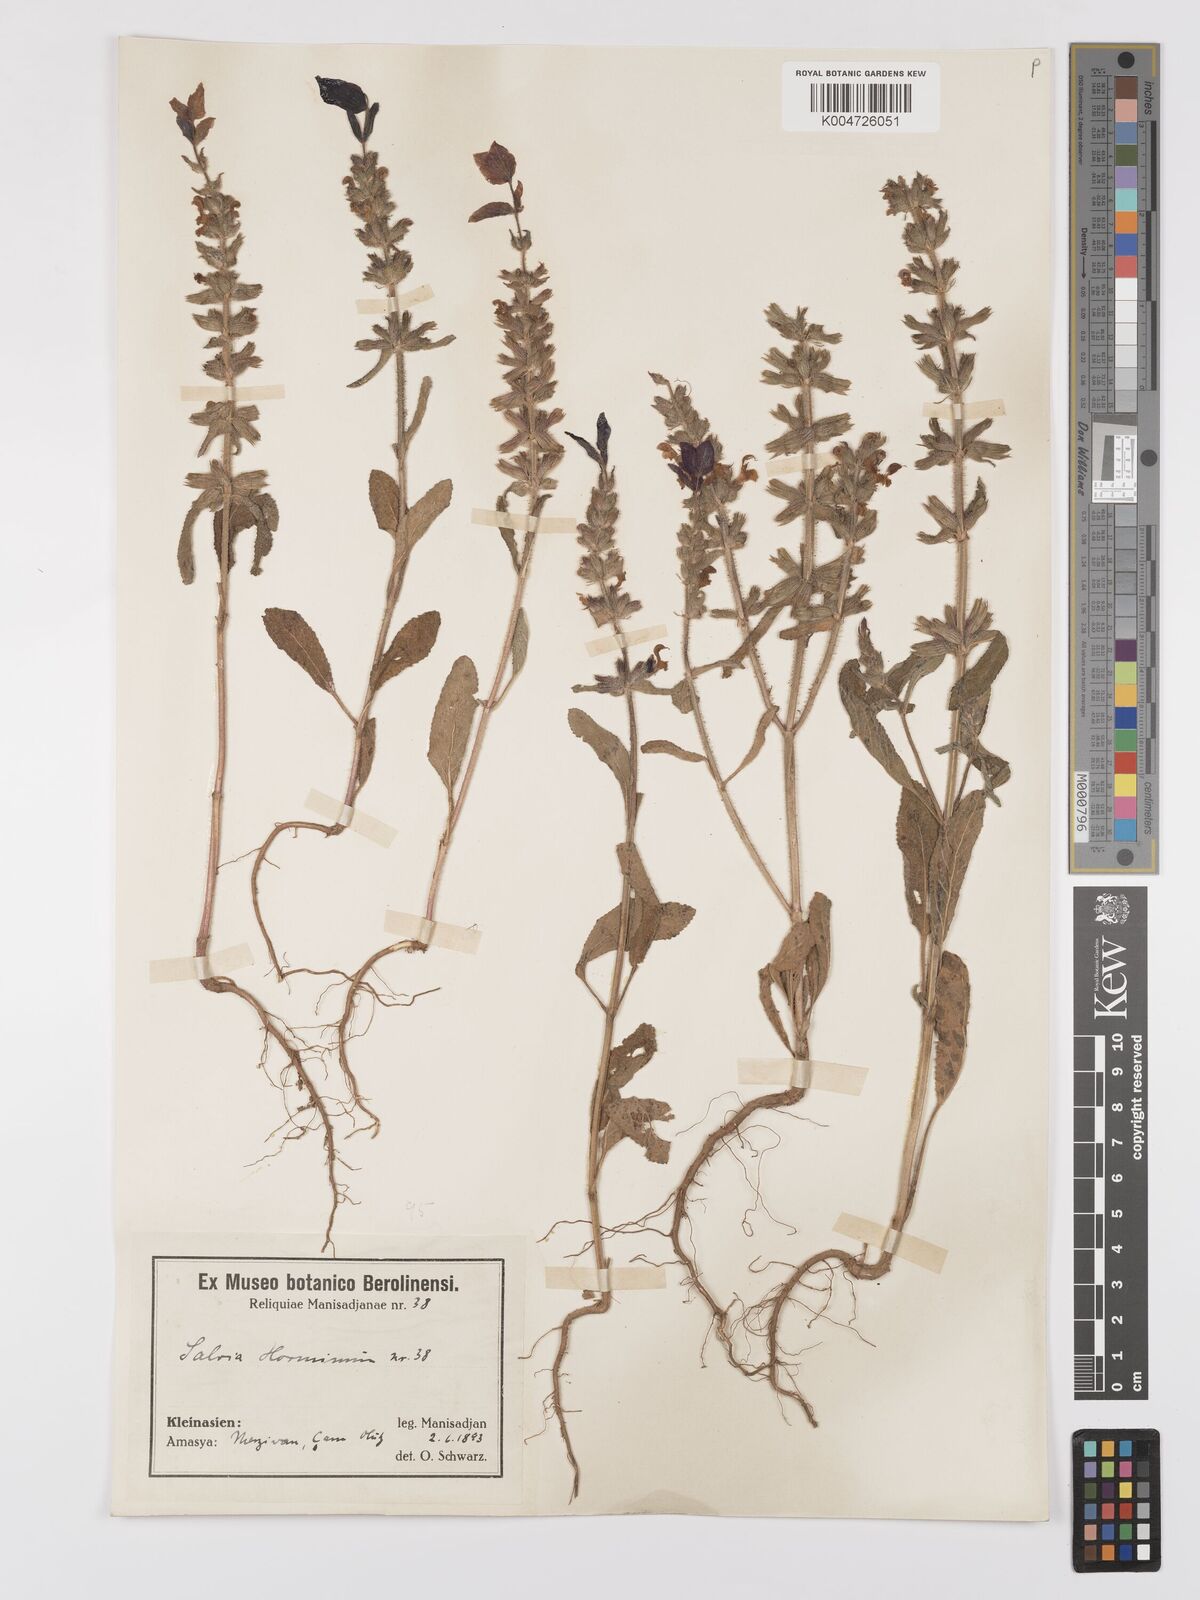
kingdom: Plantae
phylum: Tracheophyta
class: Magnoliopsida
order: Lamiales
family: Lamiaceae
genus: Salvia
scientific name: Salvia viridis
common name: Annual clary
